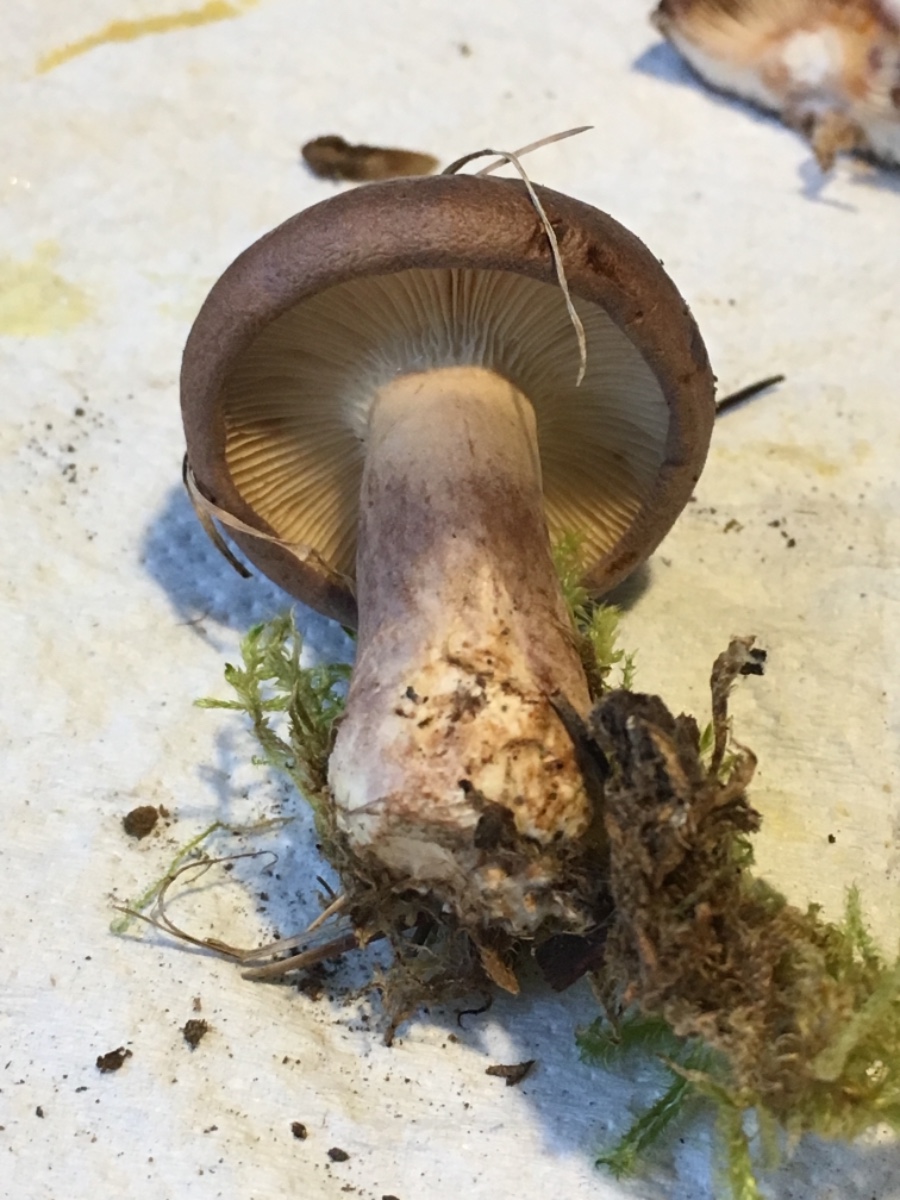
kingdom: Fungi
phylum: Basidiomycota
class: Agaricomycetes
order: Russulales
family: Russulaceae
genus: Lactarius
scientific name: Lactarius brunneoviolaceus
